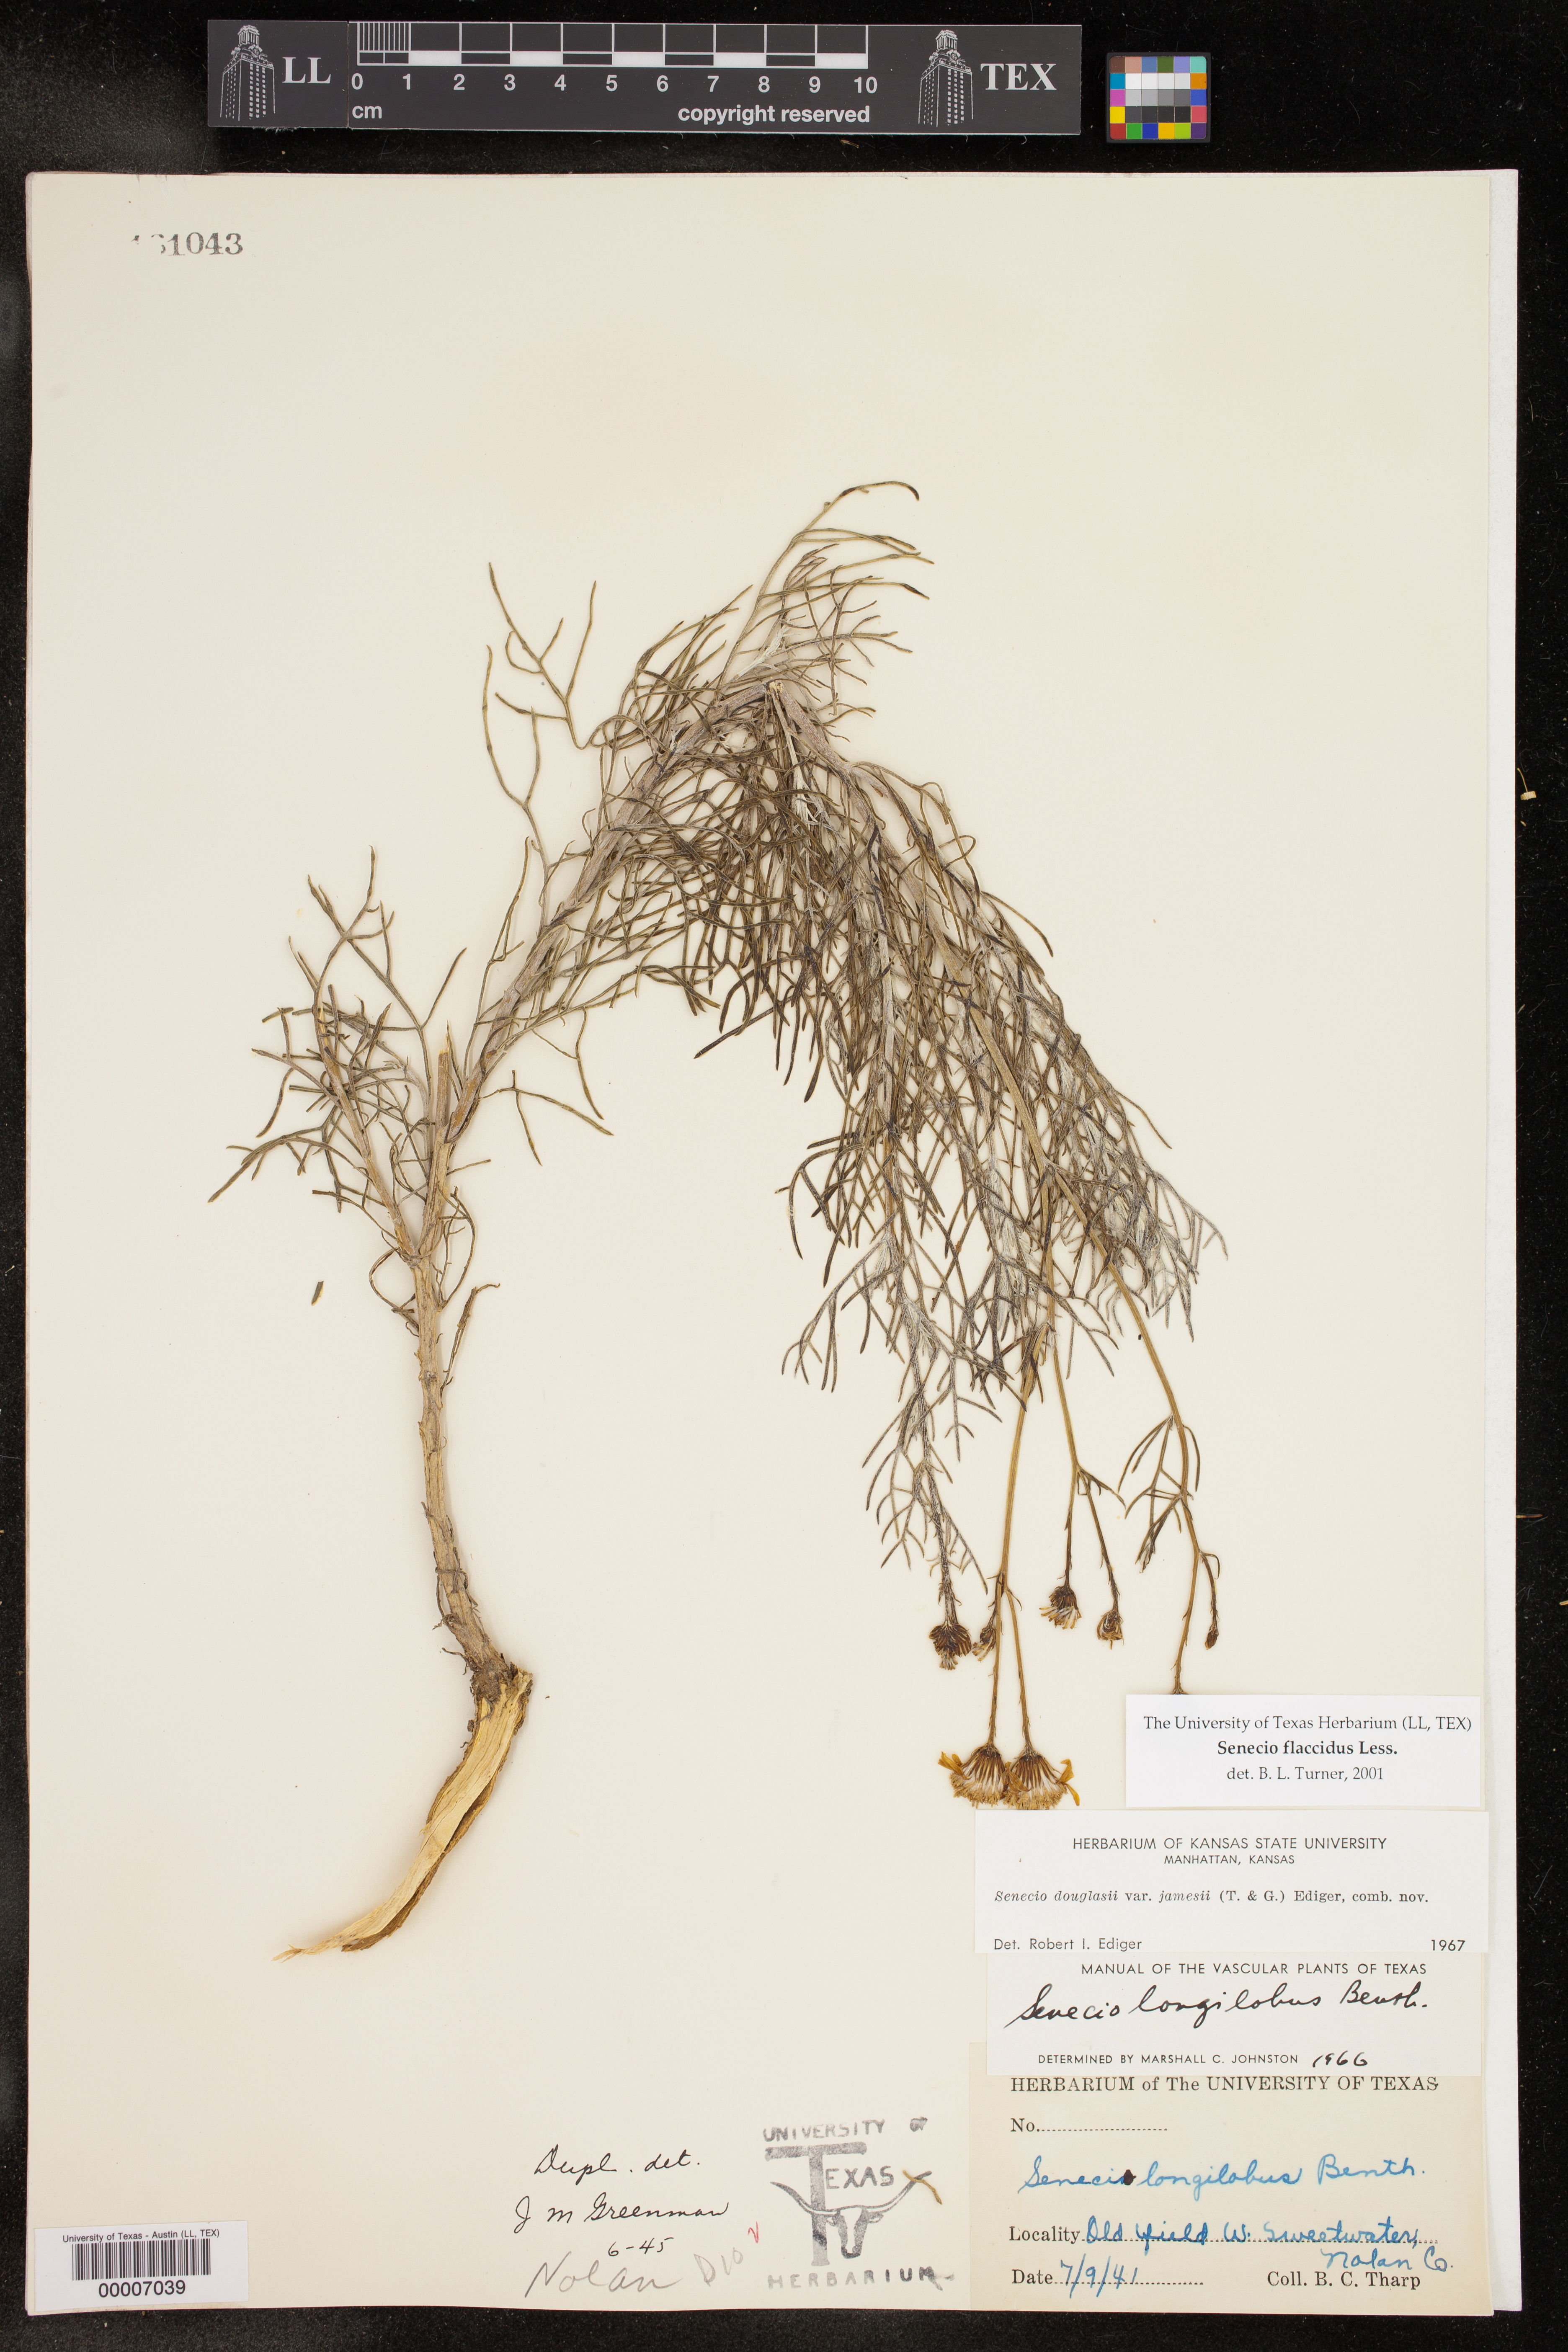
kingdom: Plantae
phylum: Tracheophyta
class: Magnoliopsida
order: Asterales
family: Asteraceae
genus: Senecio
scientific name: Senecio flaccidus
